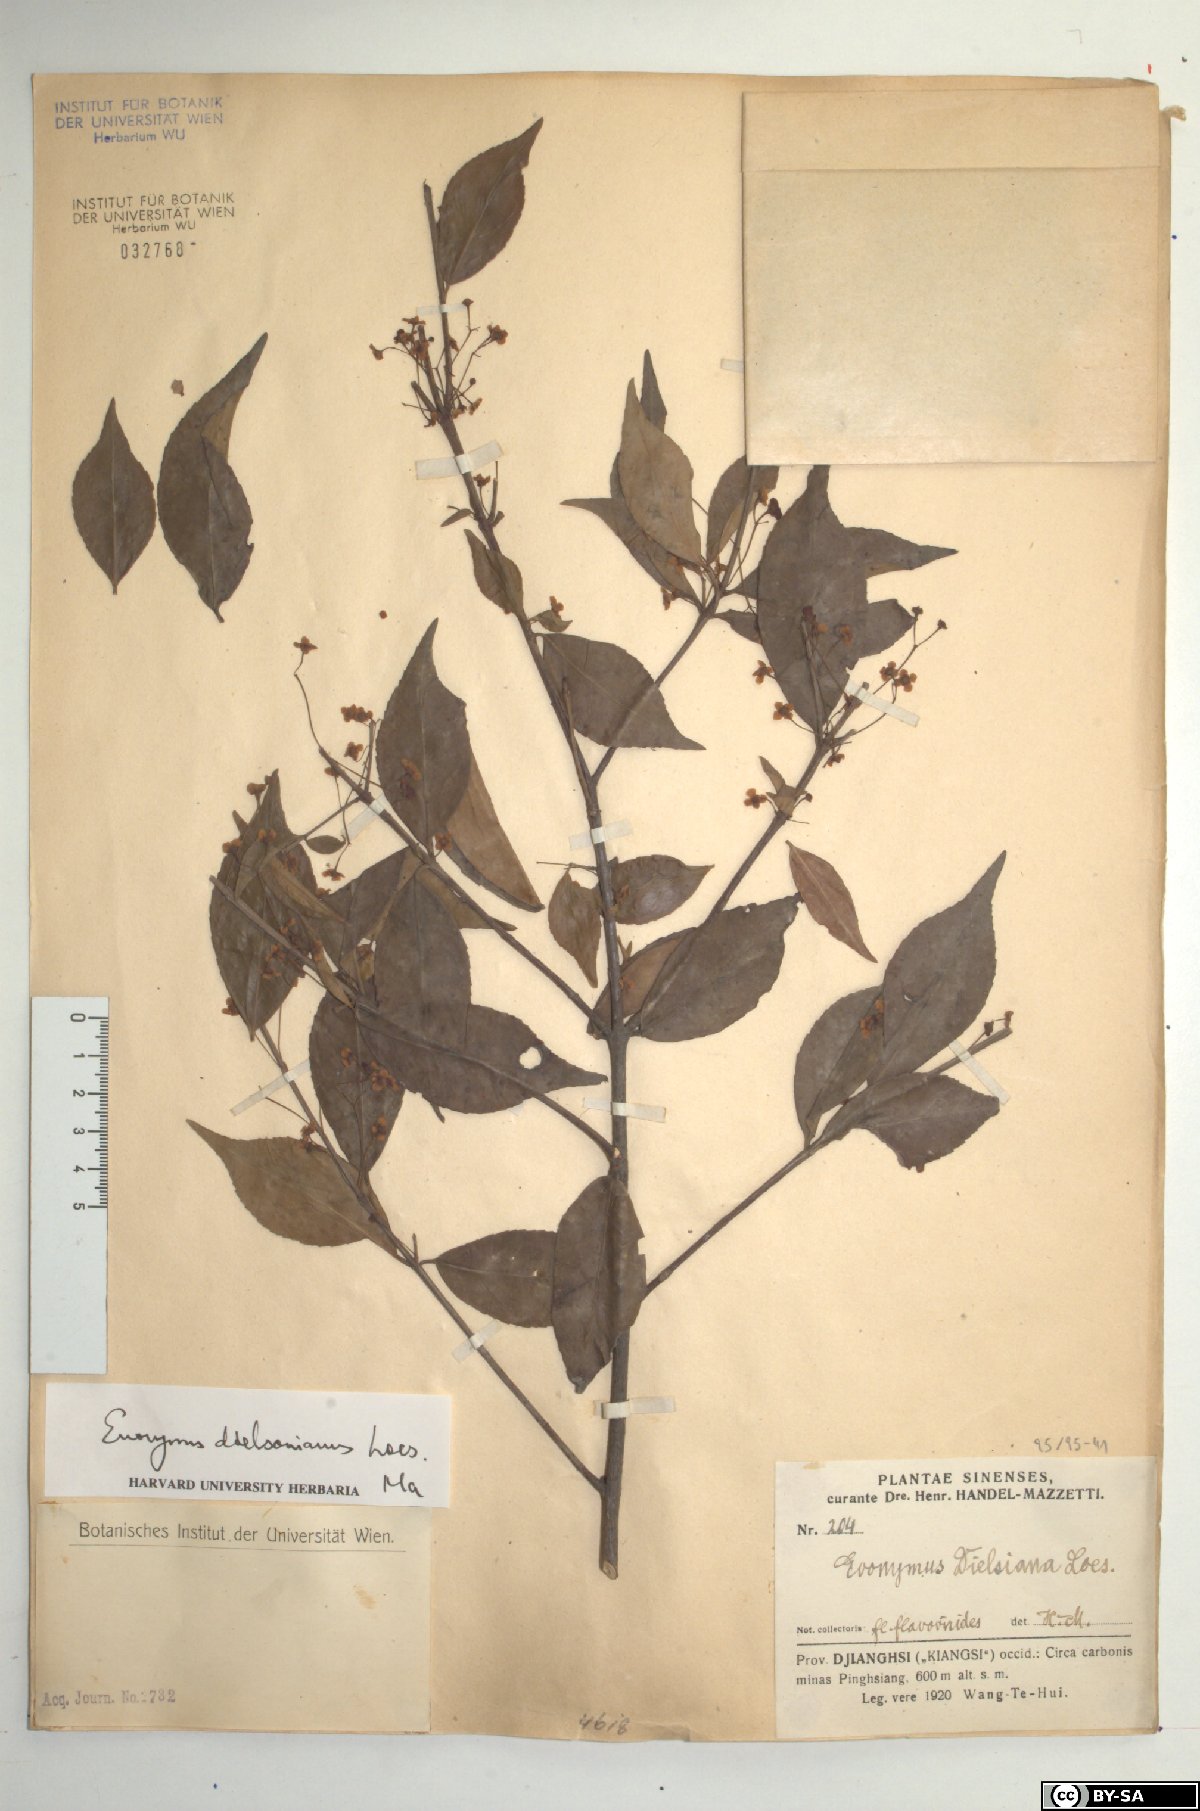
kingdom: Plantae
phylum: Tracheophyta
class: Magnoliopsida
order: Celastrales
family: Celastraceae
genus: Euonymus
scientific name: Euonymus dielsianus
